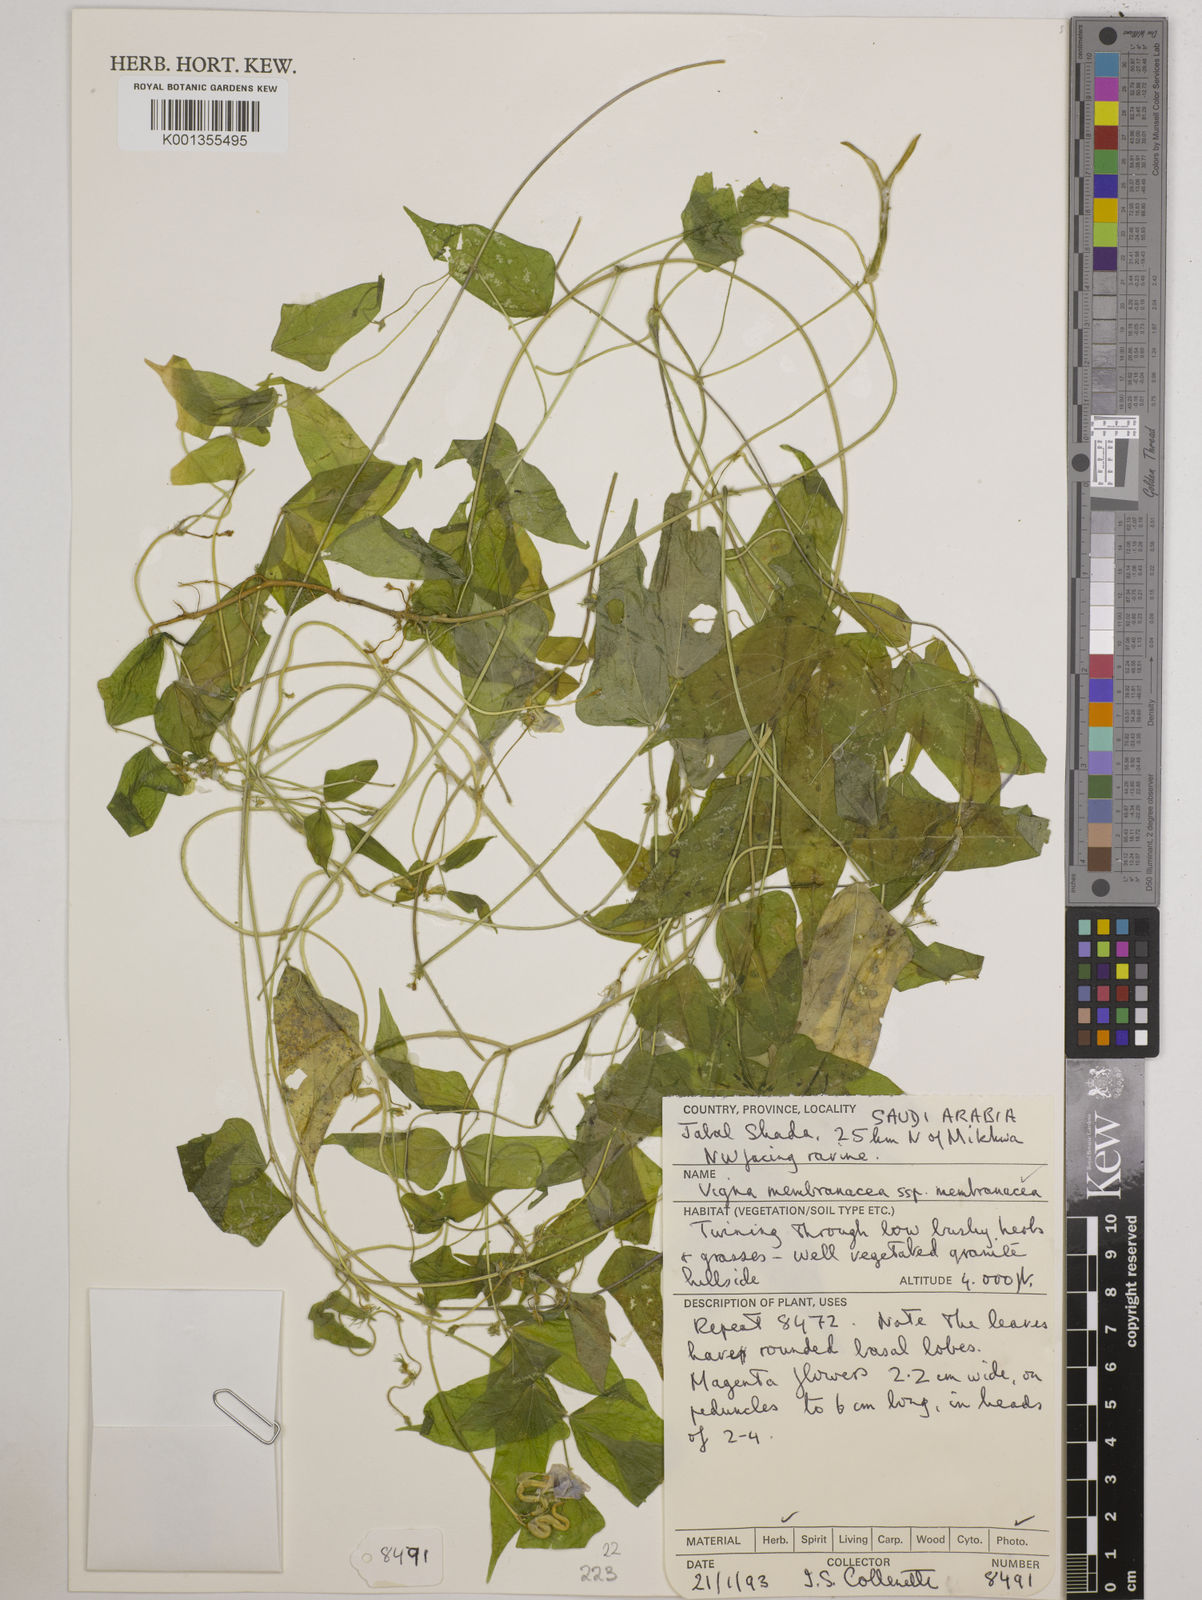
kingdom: Plantae
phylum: Tracheophyta
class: Magnoliopsida
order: Fabales
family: Fabaceae
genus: Vigna
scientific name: Vigna membranacea
